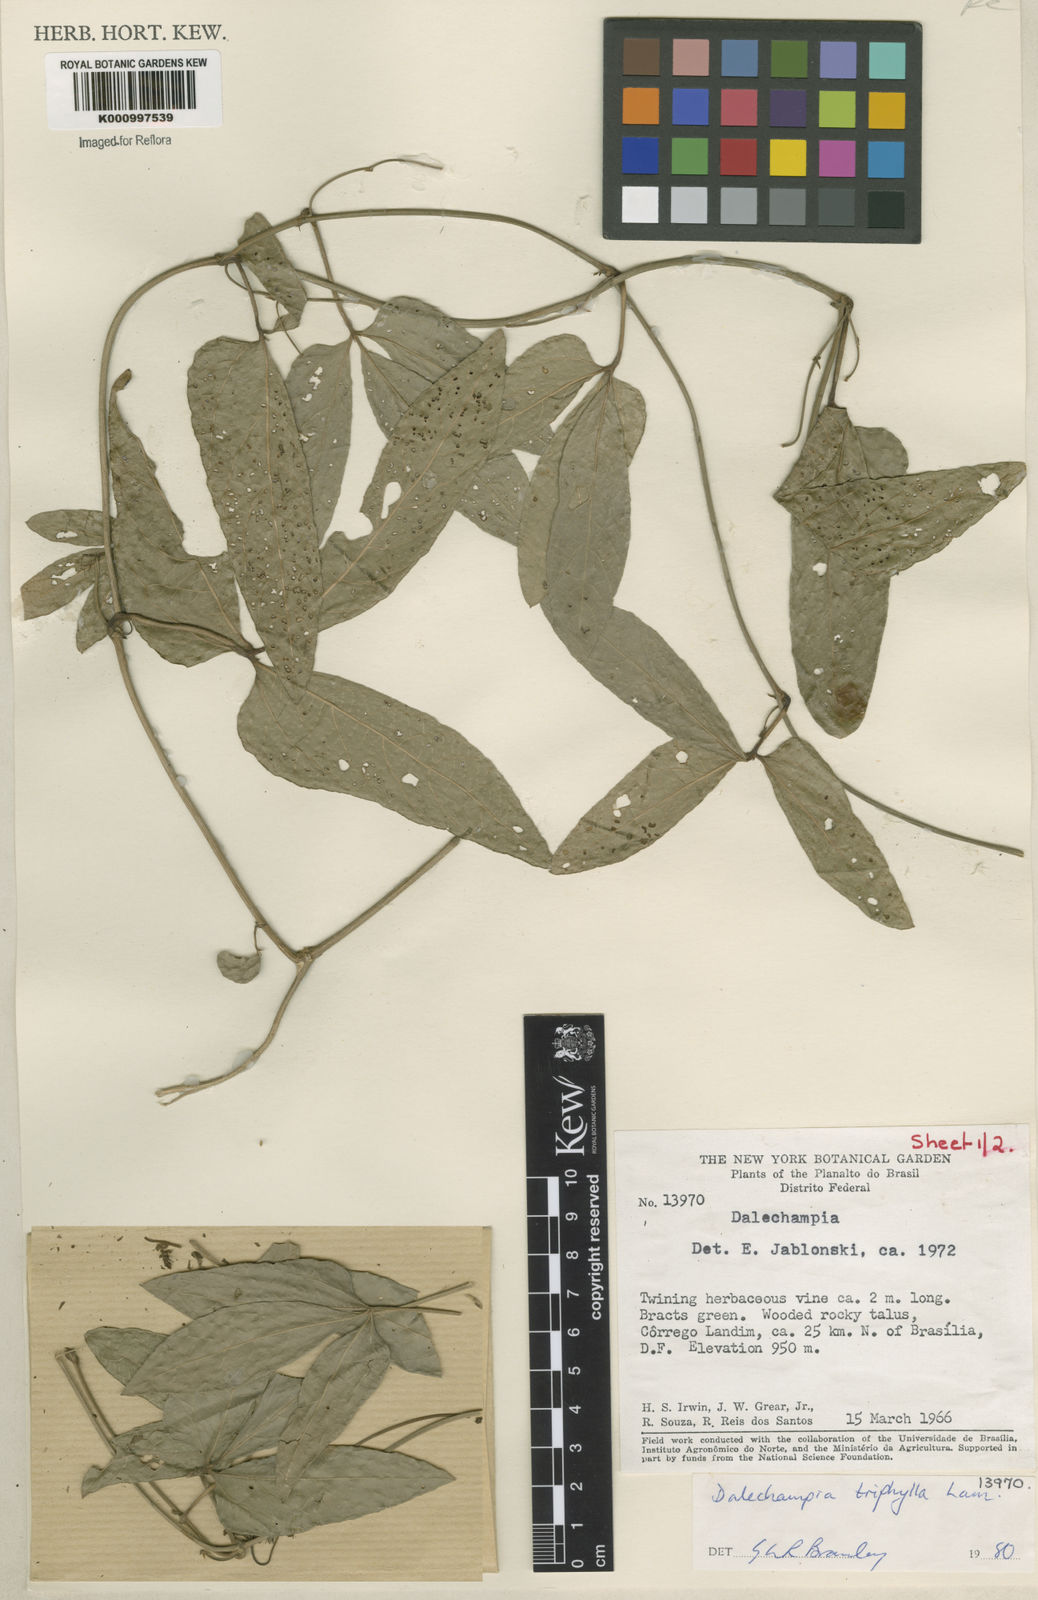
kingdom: Plantae
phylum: Tracheophyta
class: Magnoliopsida
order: Malpighiales
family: Euphorbiaceae
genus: Dalechampia
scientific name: Dalechampia triphylla
